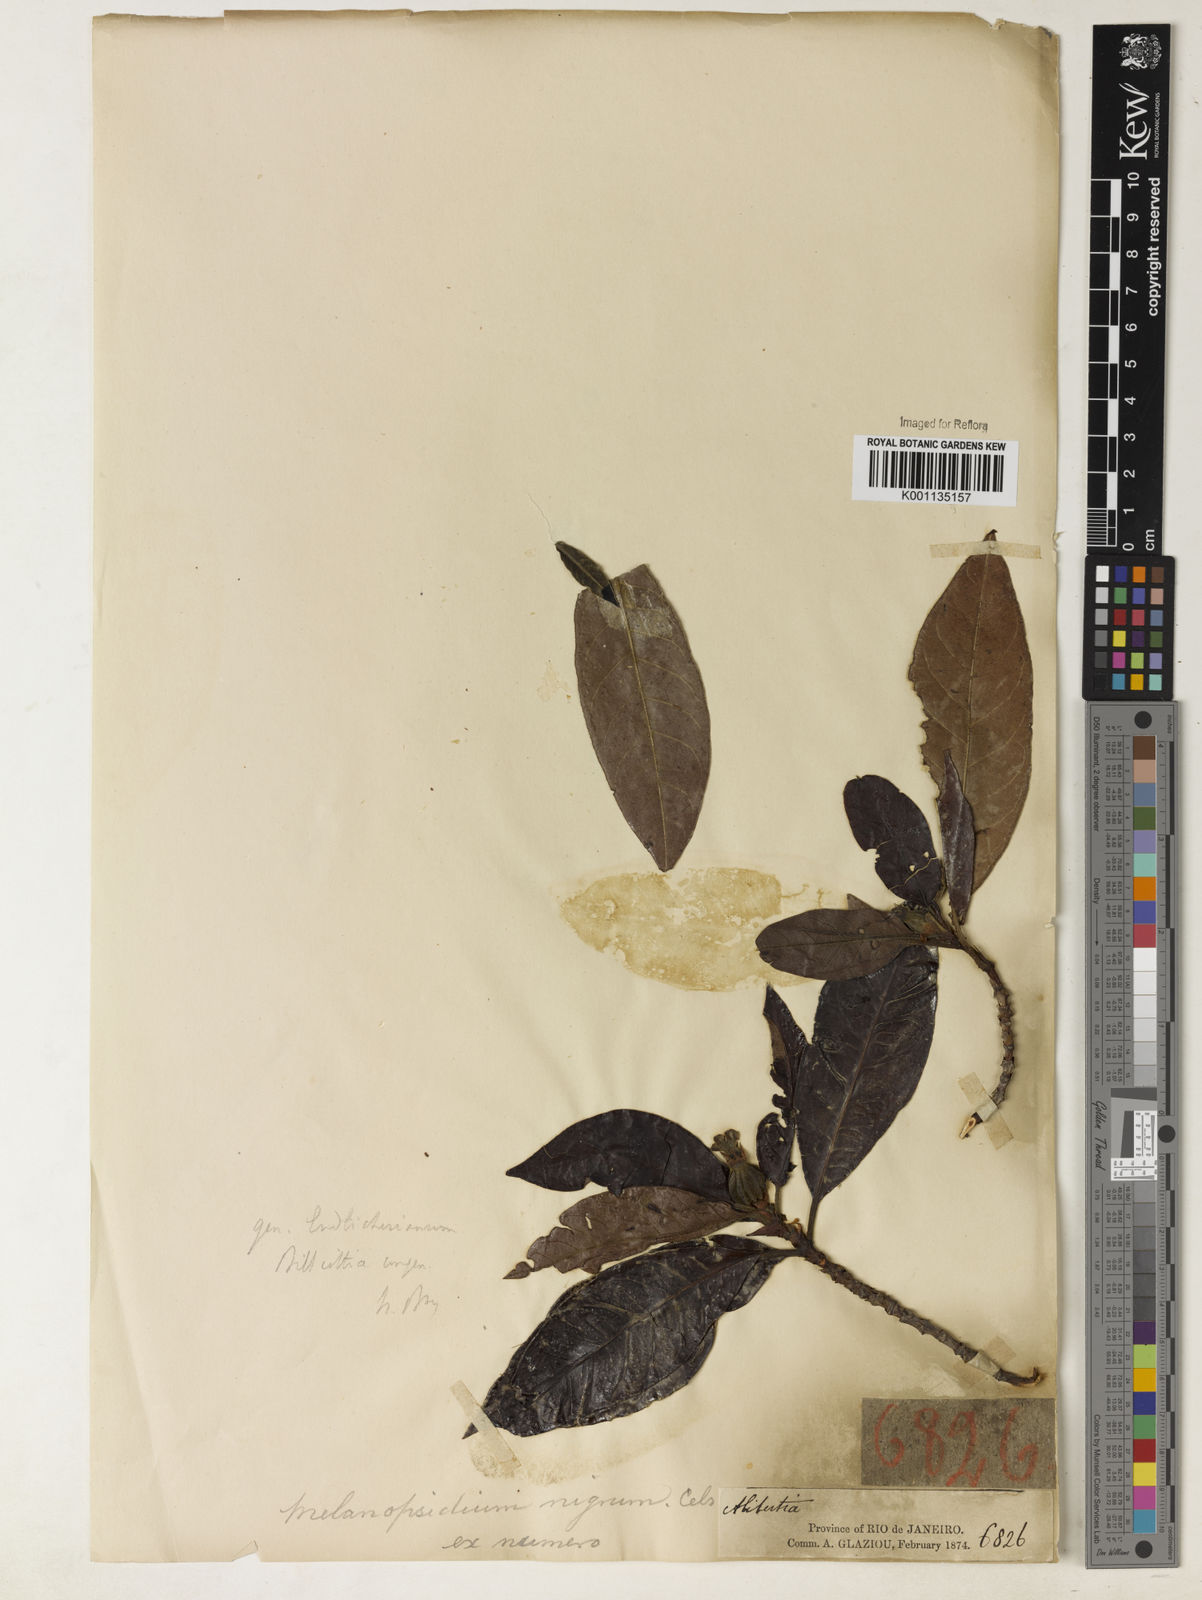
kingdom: Plantae
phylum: Tracheophyta
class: Magnoliopsida
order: Gentianales
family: Rubiaceae
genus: Melanopsidium
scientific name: Melanopsidium nigrum
